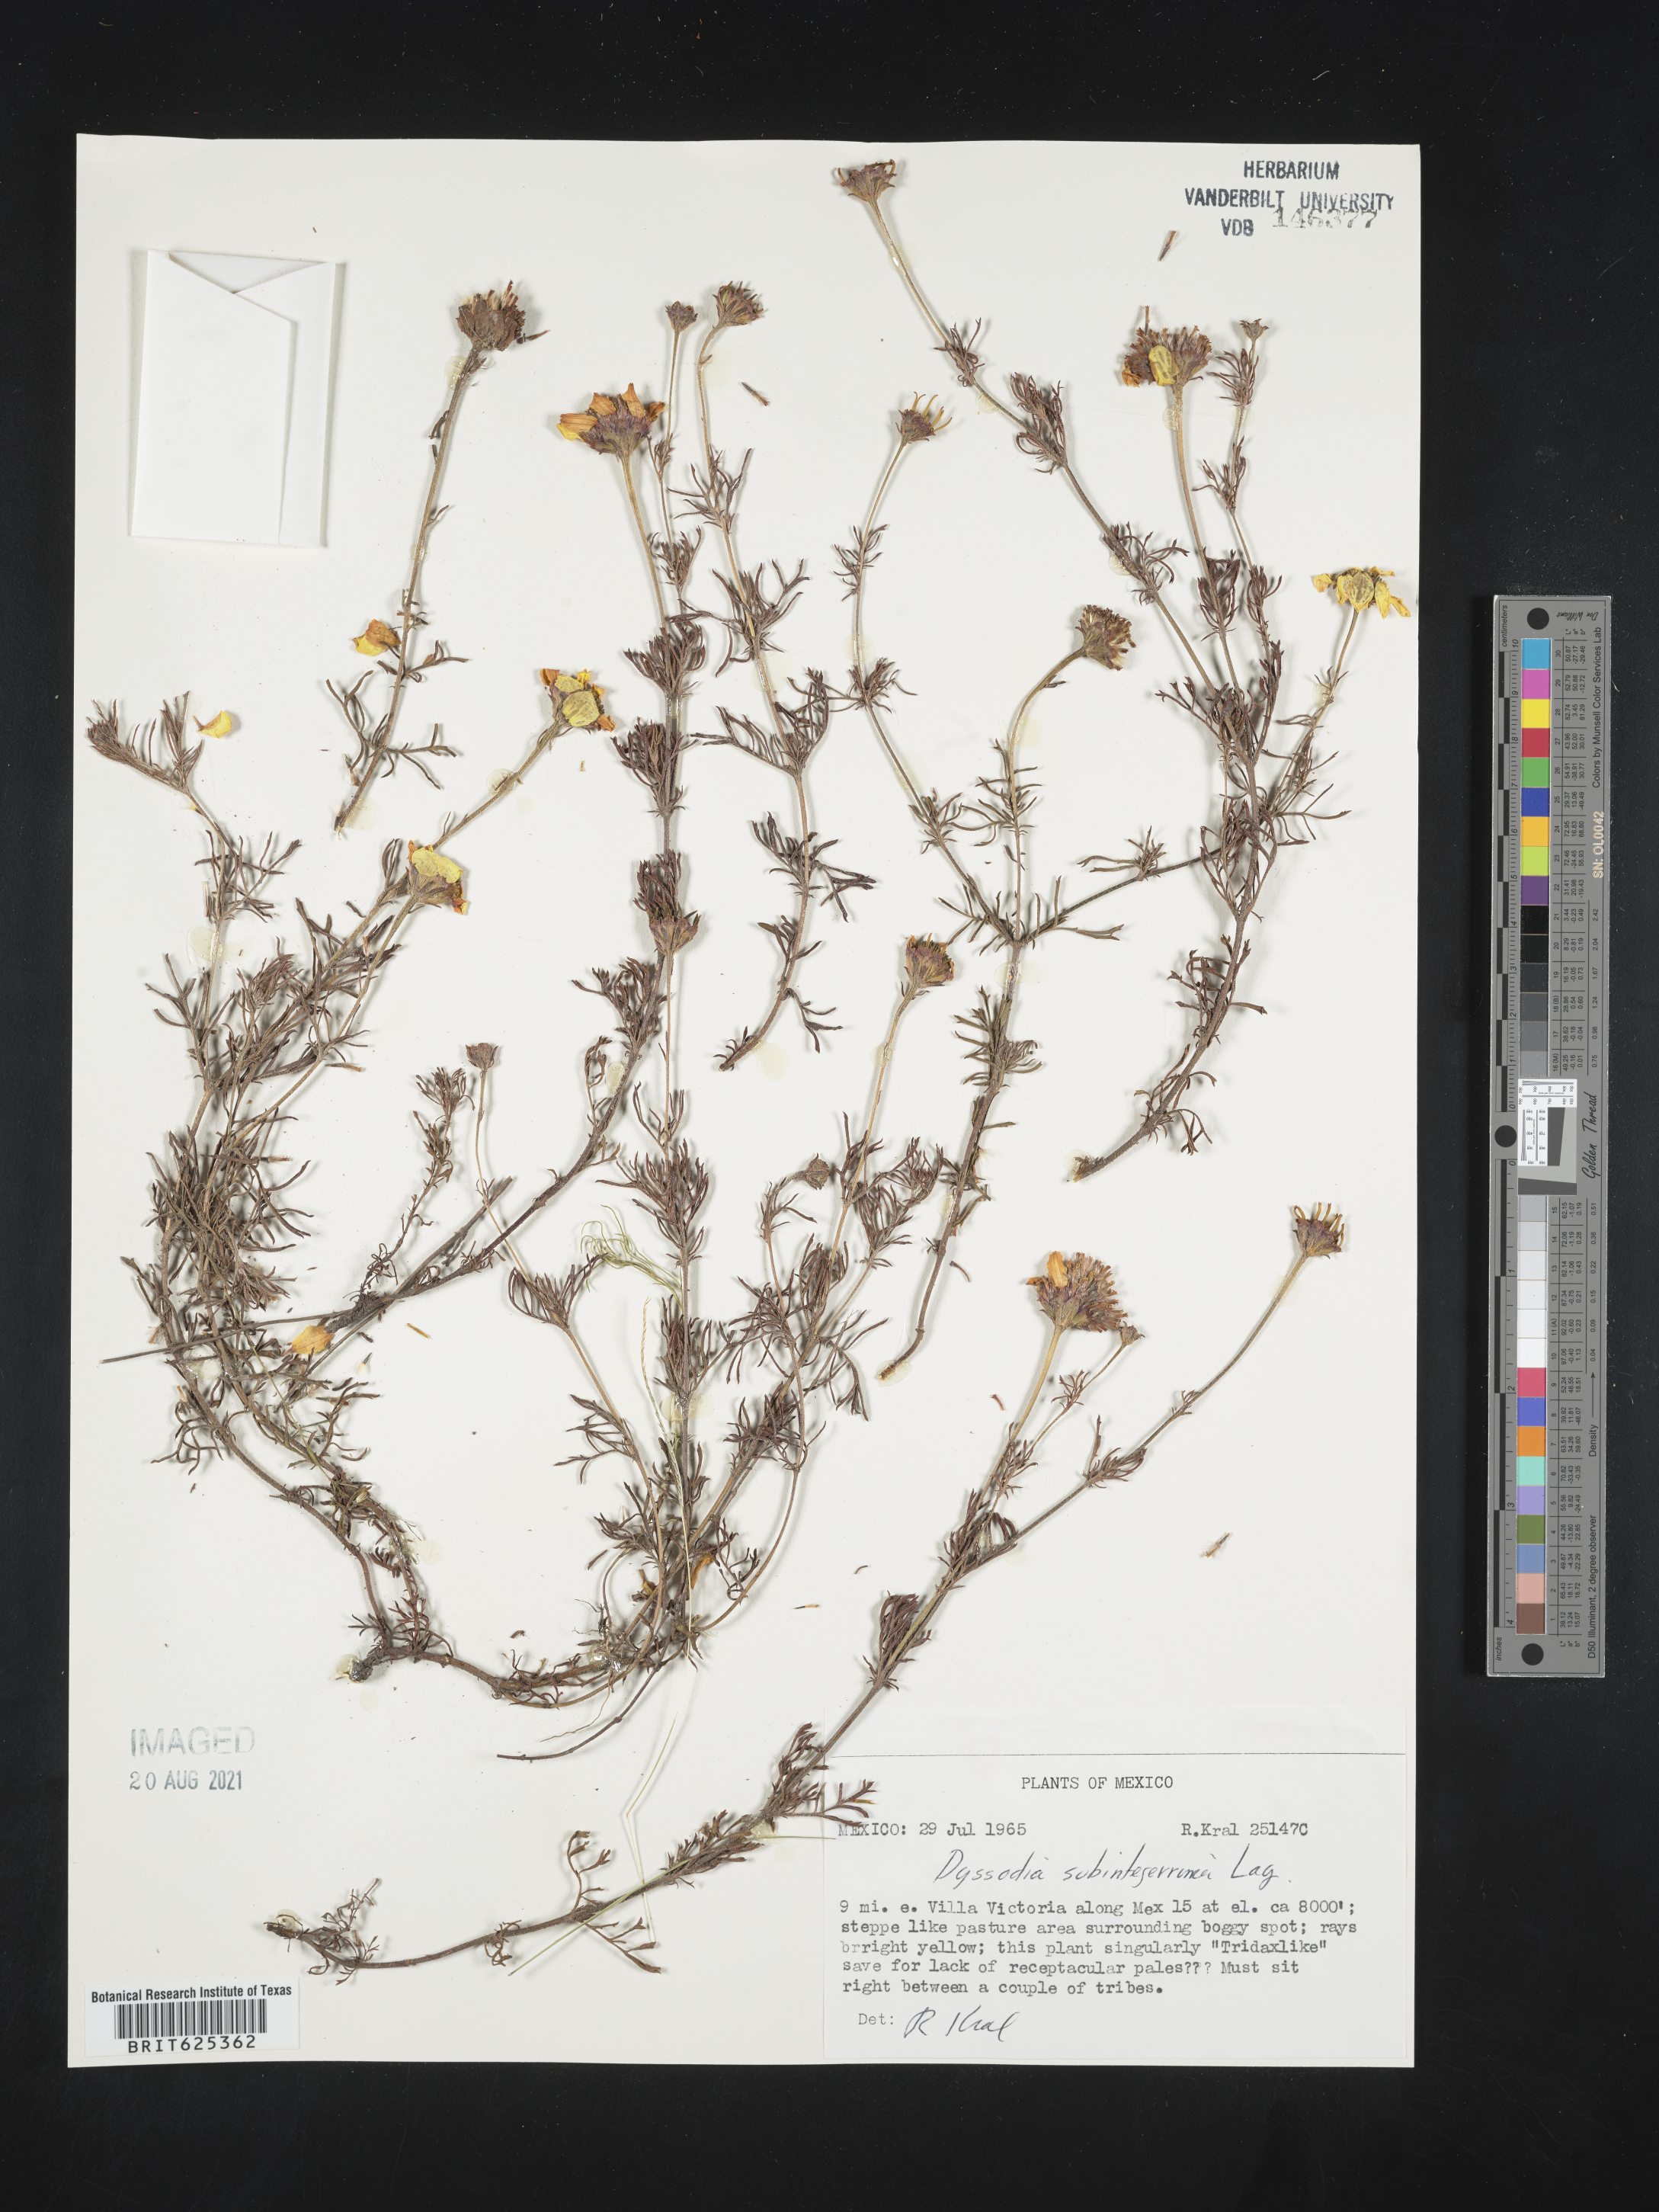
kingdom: Plantae
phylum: Tracheophyta
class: Magnoliopsida
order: Asterales
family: Asteraceae
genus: Dyssodia
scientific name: Dyssodia
